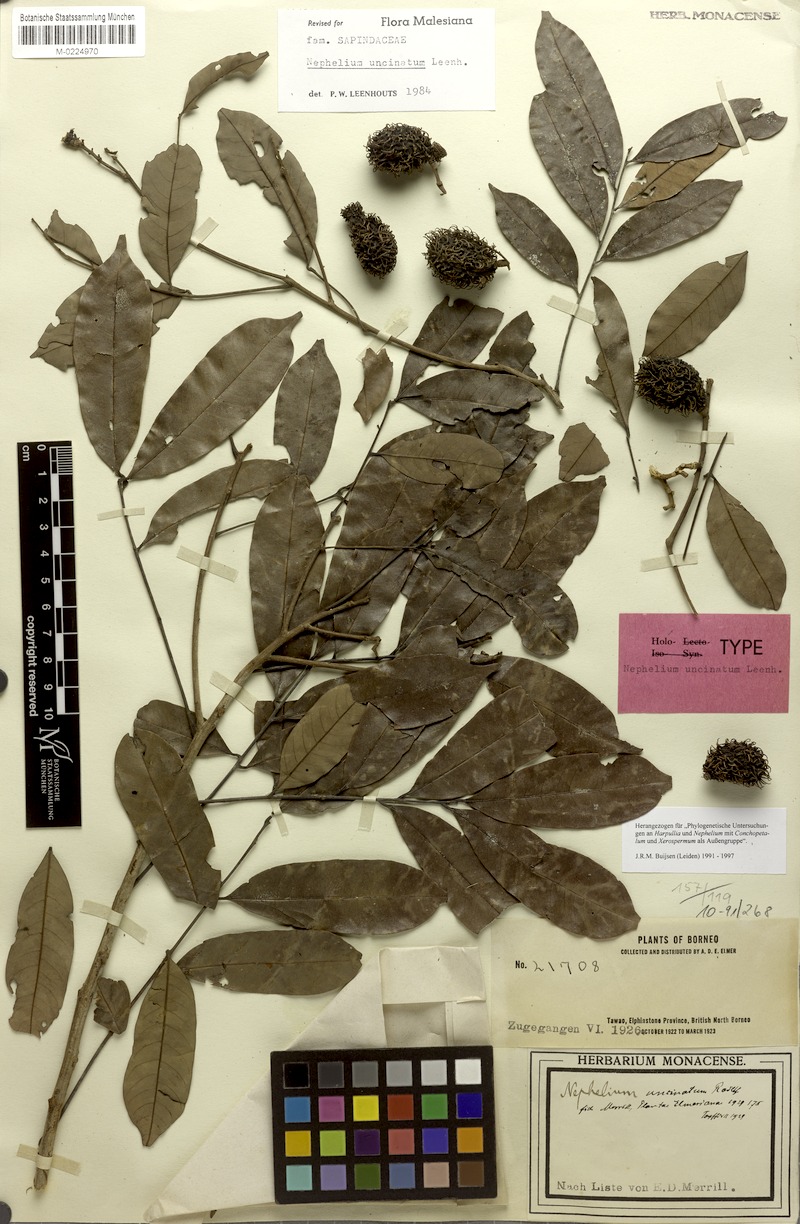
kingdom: Plantae
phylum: Tracheophyta
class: Magnoliopsida
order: Sapindales
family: Sapindaceae
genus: Nephelium
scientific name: Nephelium uncinatum
